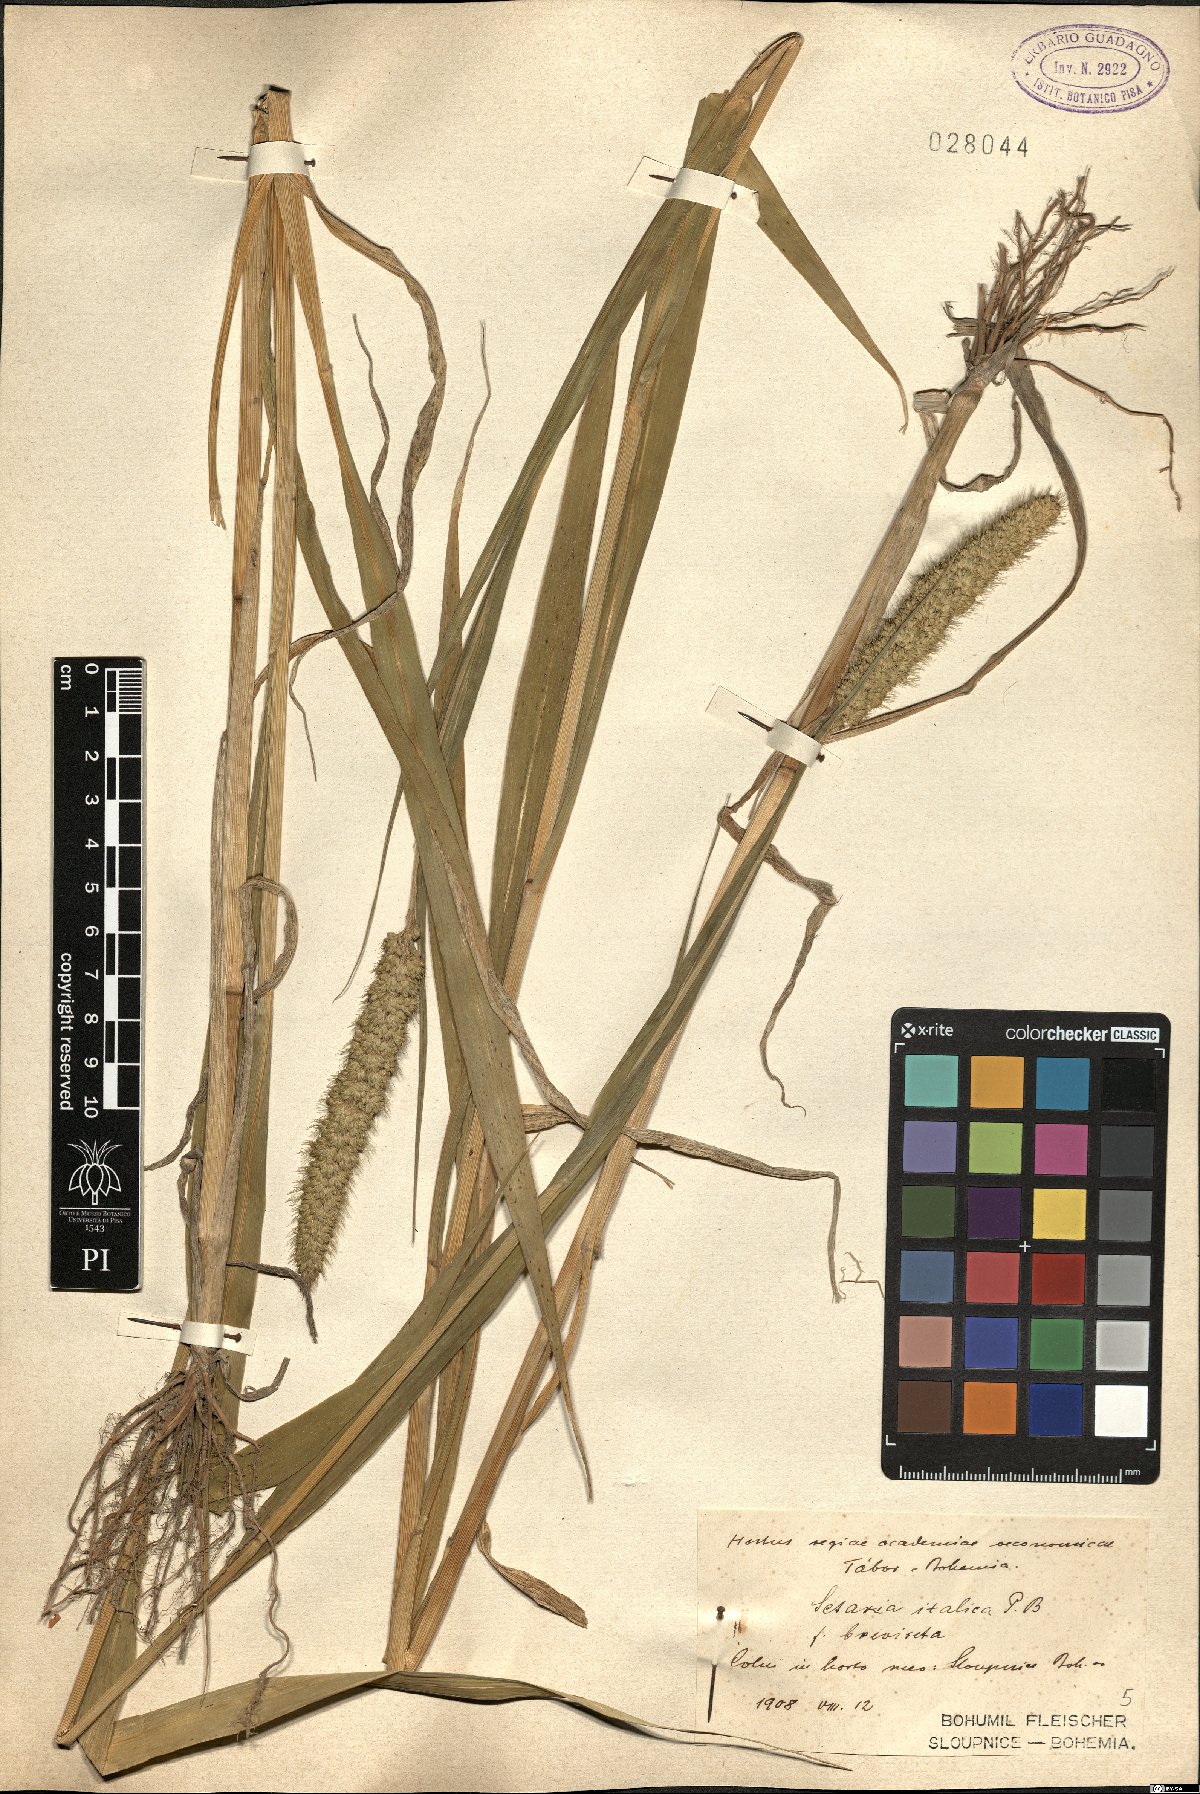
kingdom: Plantae
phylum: Tracheophyta
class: Liliopsida
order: Poales
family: Poaceae
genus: Setaria
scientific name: Setaria italica
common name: Foxtail bristle-grass
